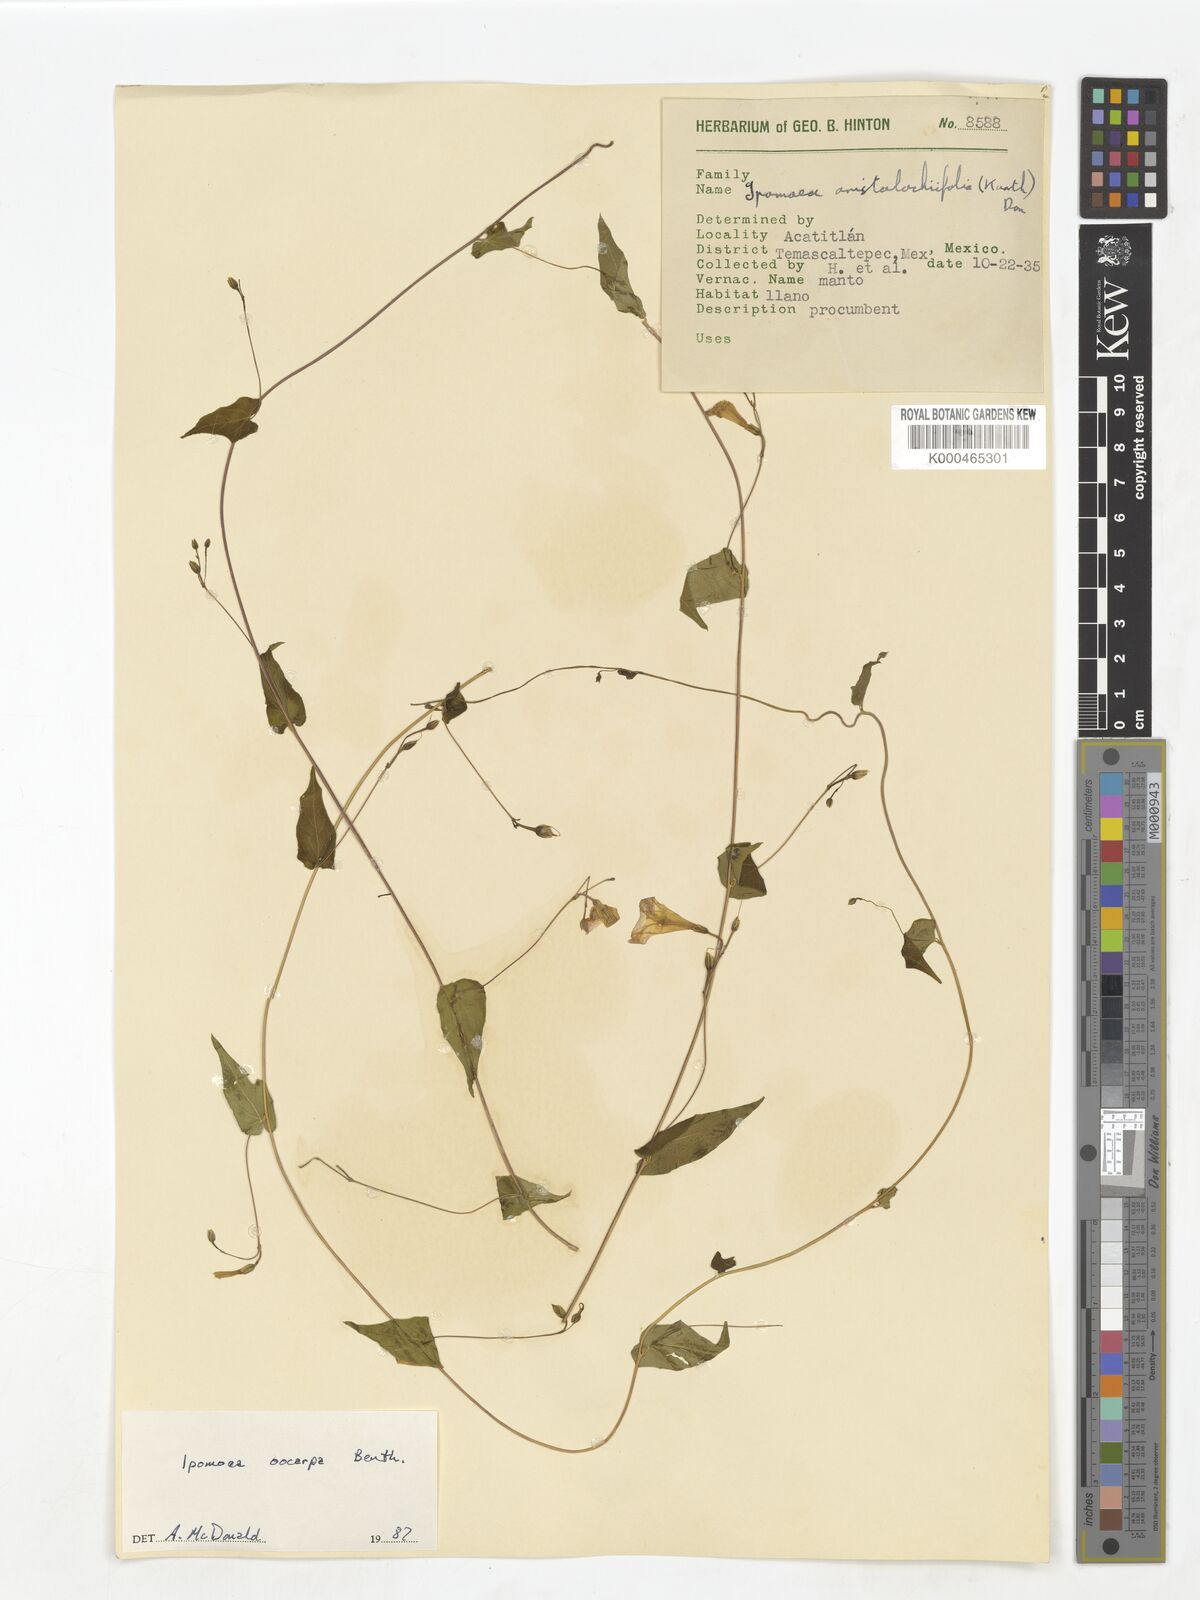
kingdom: Plantae
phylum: Tracheophyta
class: Magnoliopsida
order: Solanales
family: Convolvulaceae
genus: Ipomoea
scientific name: Ipomoea aristolochiifolia
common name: Aristolochia-leaved morning-glory
